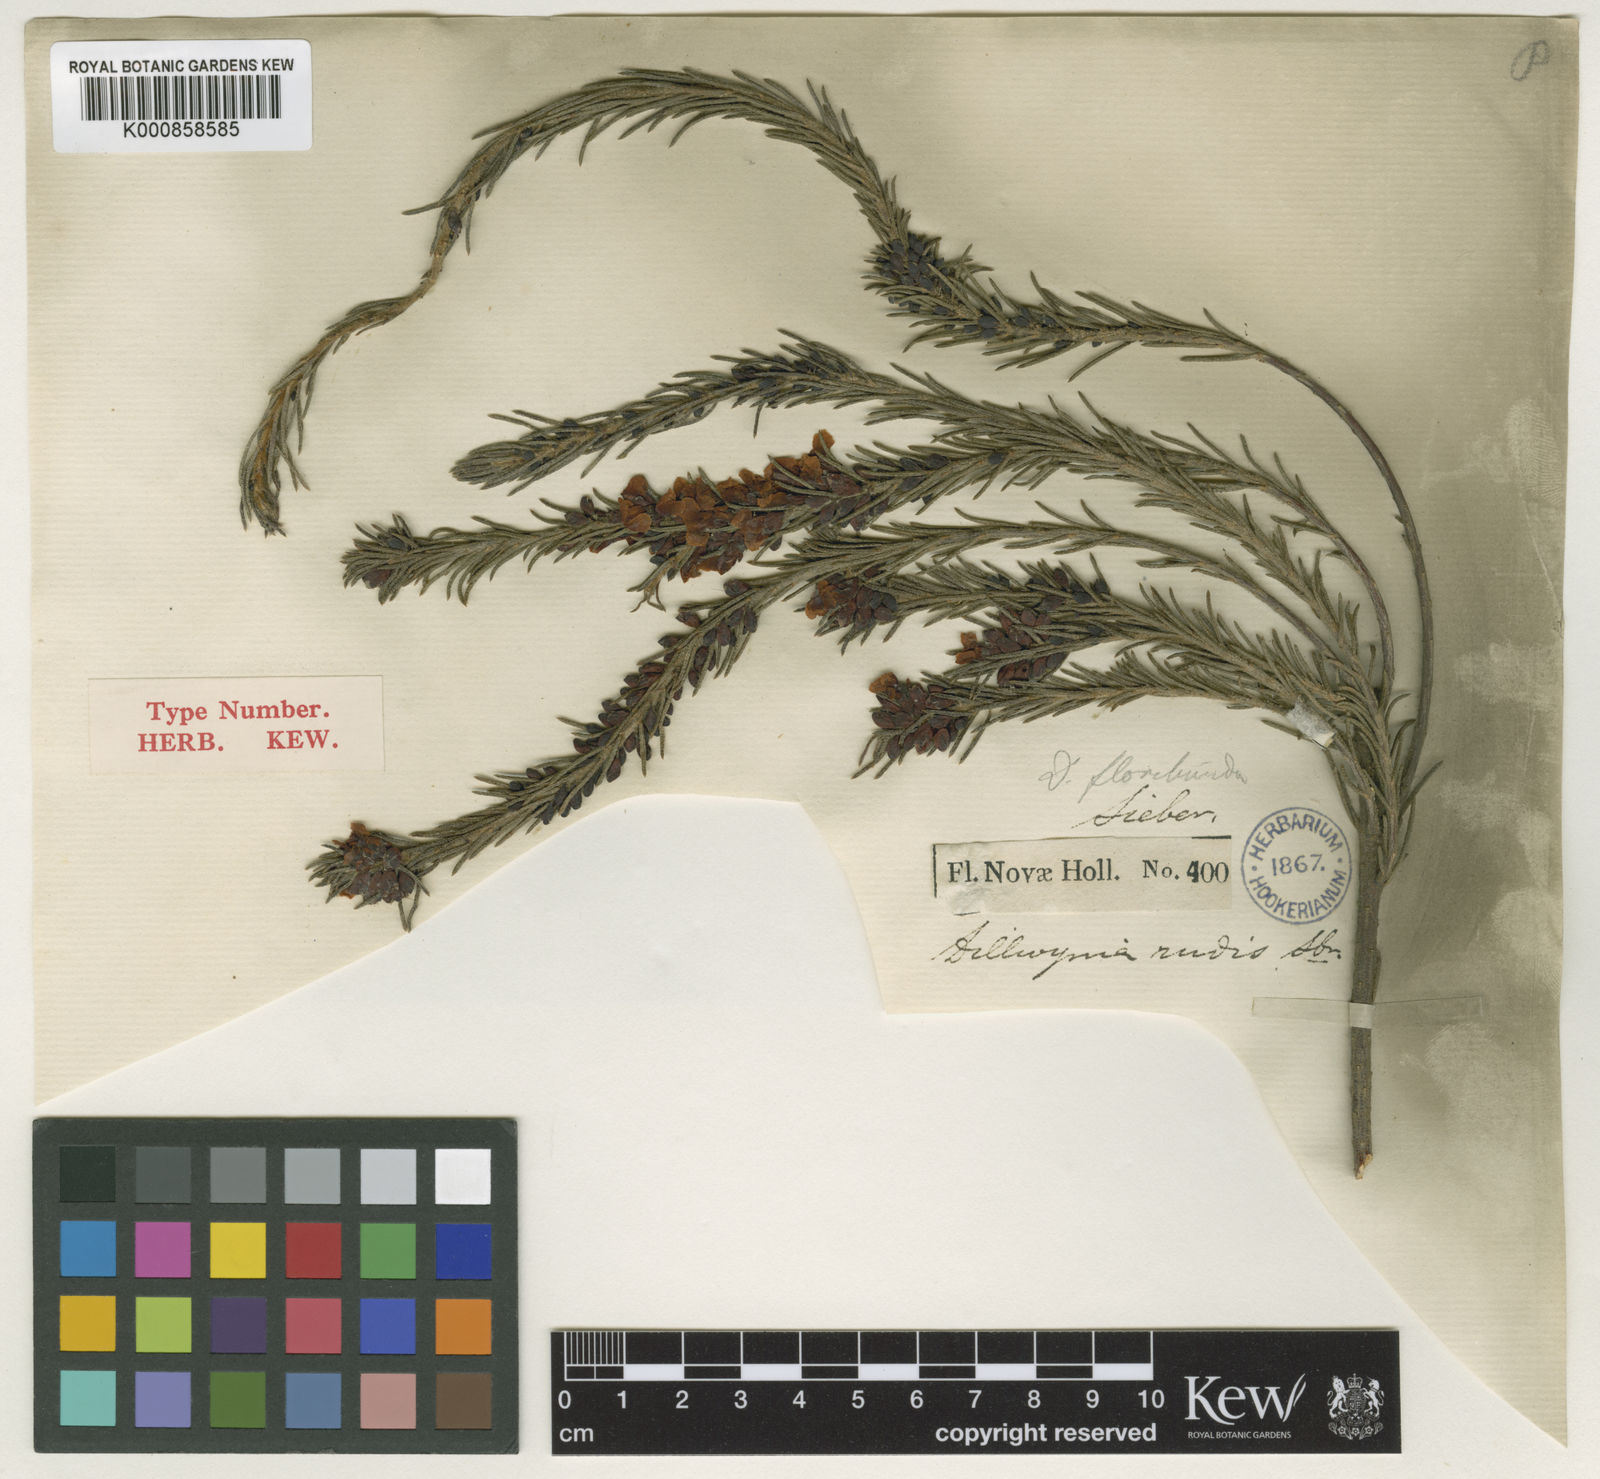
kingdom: Plantae
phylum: Tracheophyta
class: Magnoliopsida
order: Fabales
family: Fabaceae
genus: Dillwynia
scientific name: Dillwynia floribunda
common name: Eggs-and-bacon
